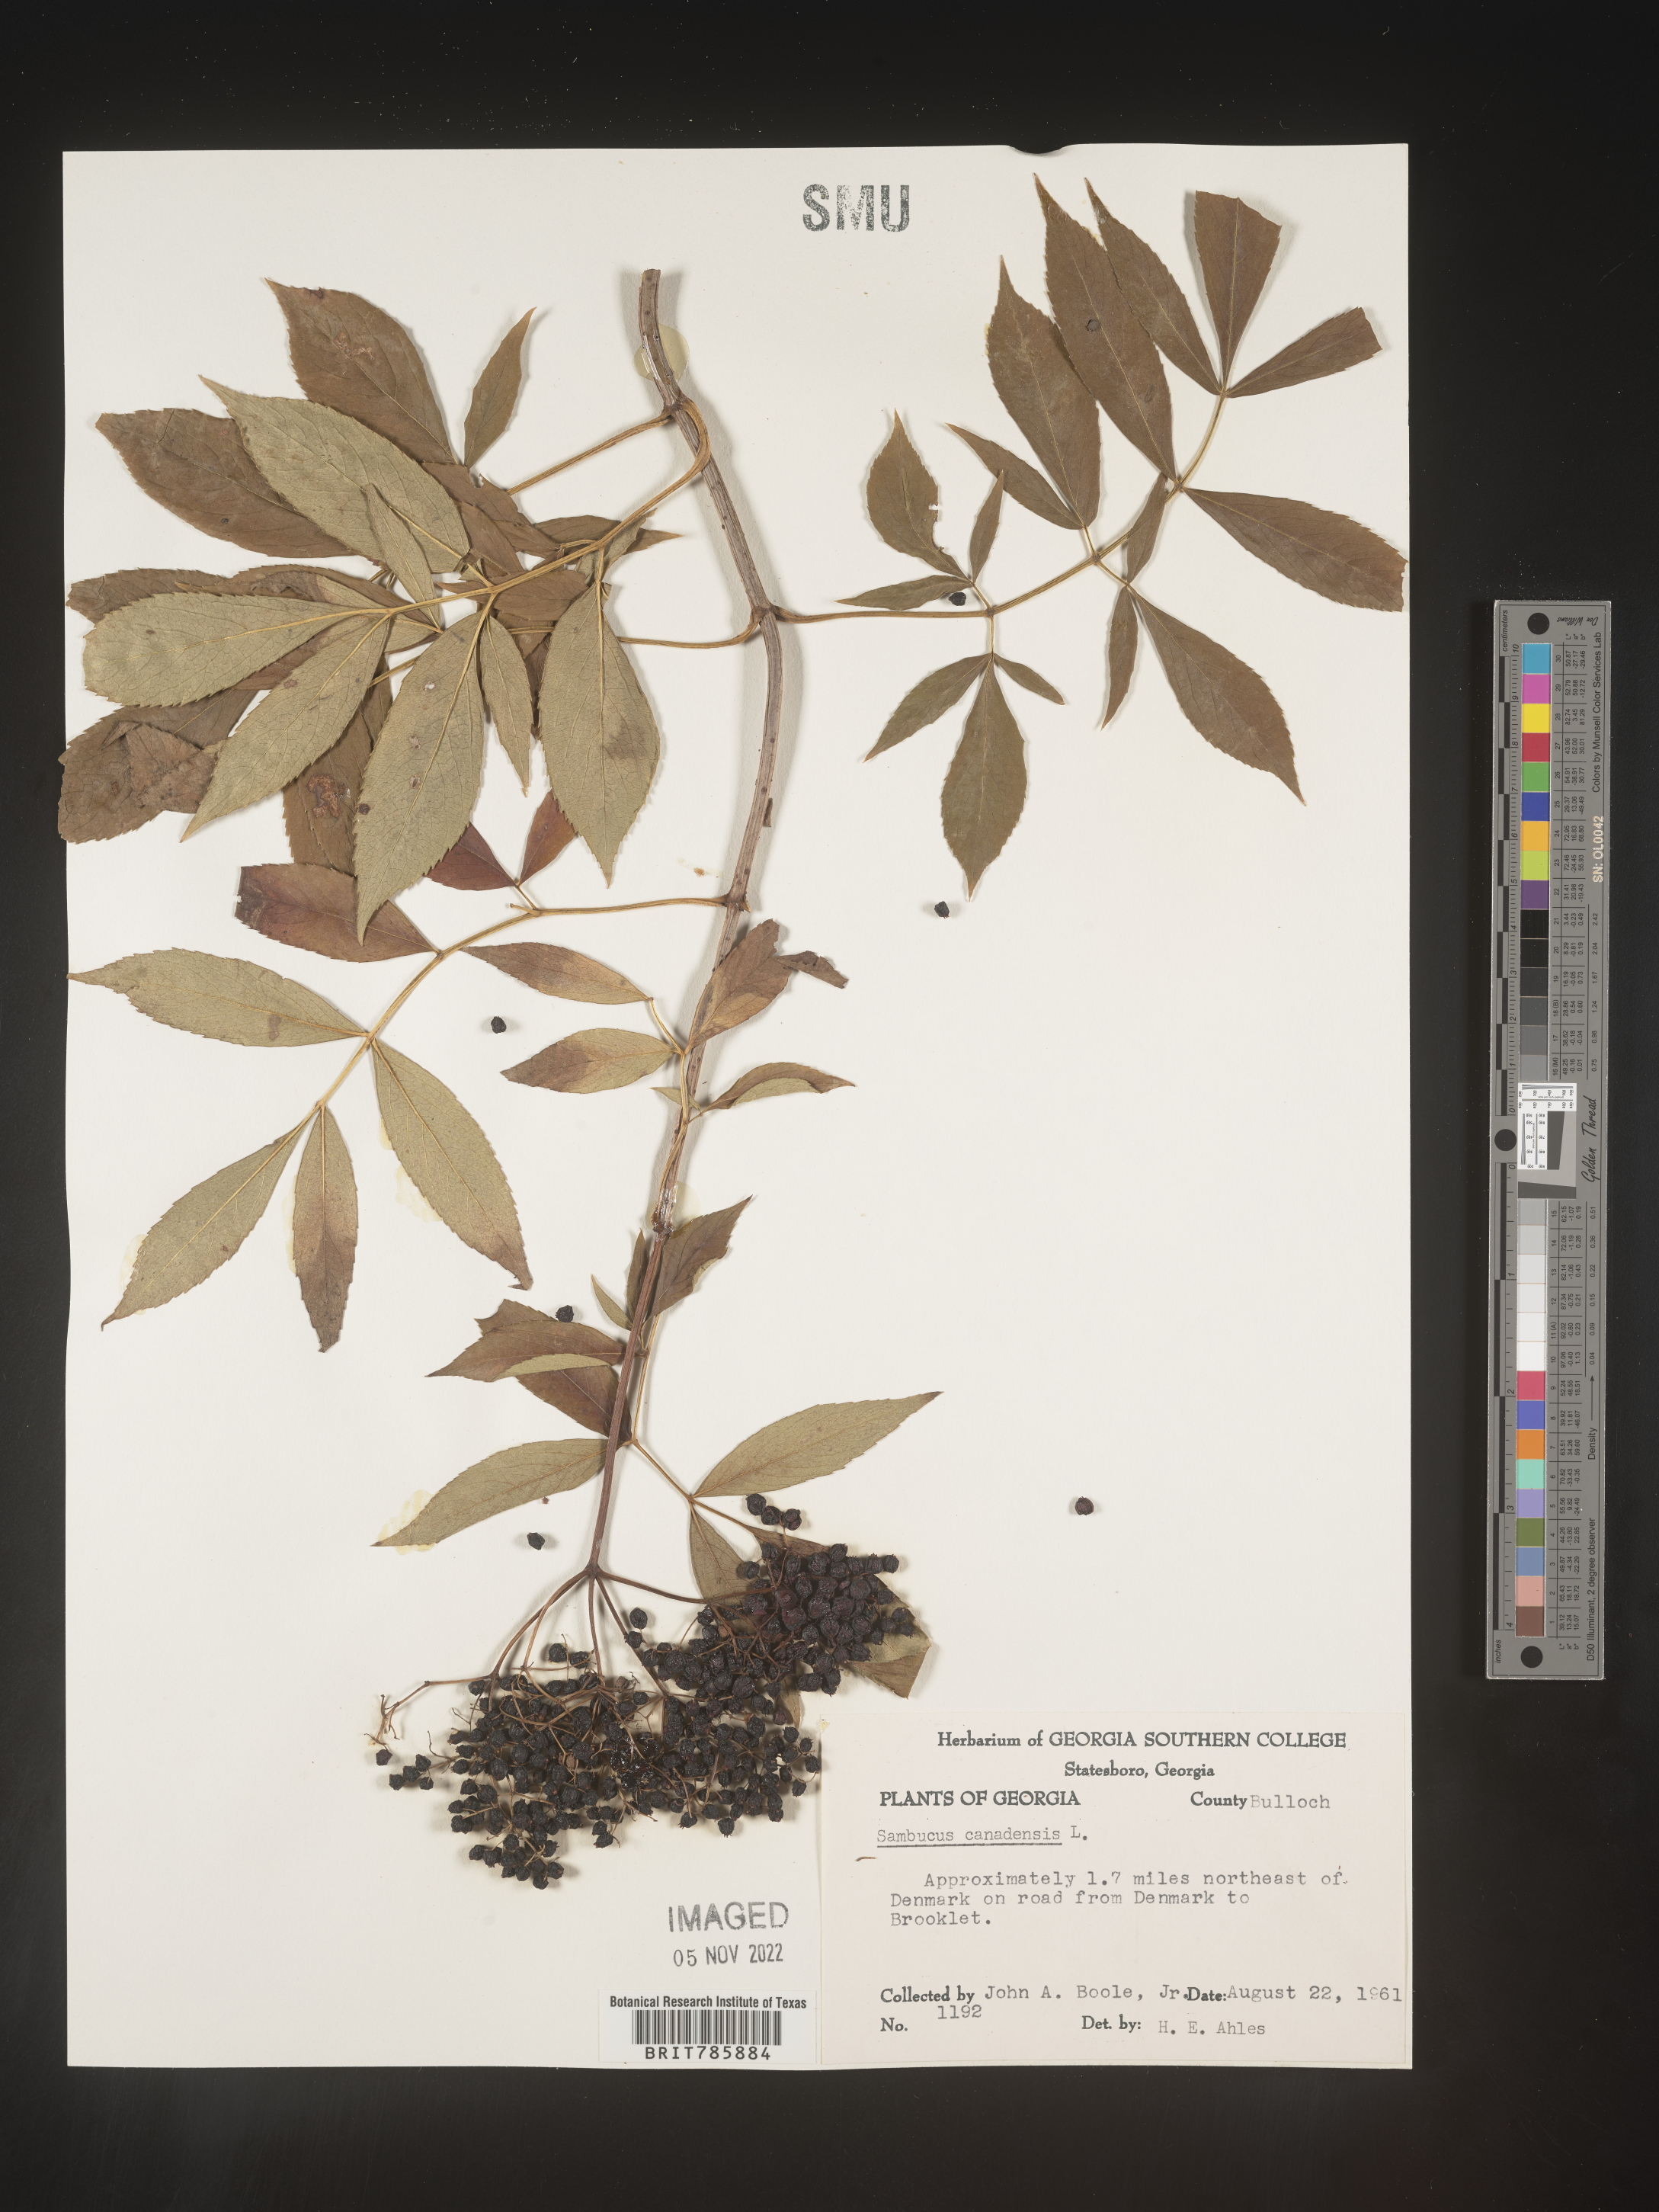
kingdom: Plantae
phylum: Tracheophyta
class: Magnoliopsida
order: Dipsacales
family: Viburnaceae
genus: Sambucus
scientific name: Sambucus nigra
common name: Elder
